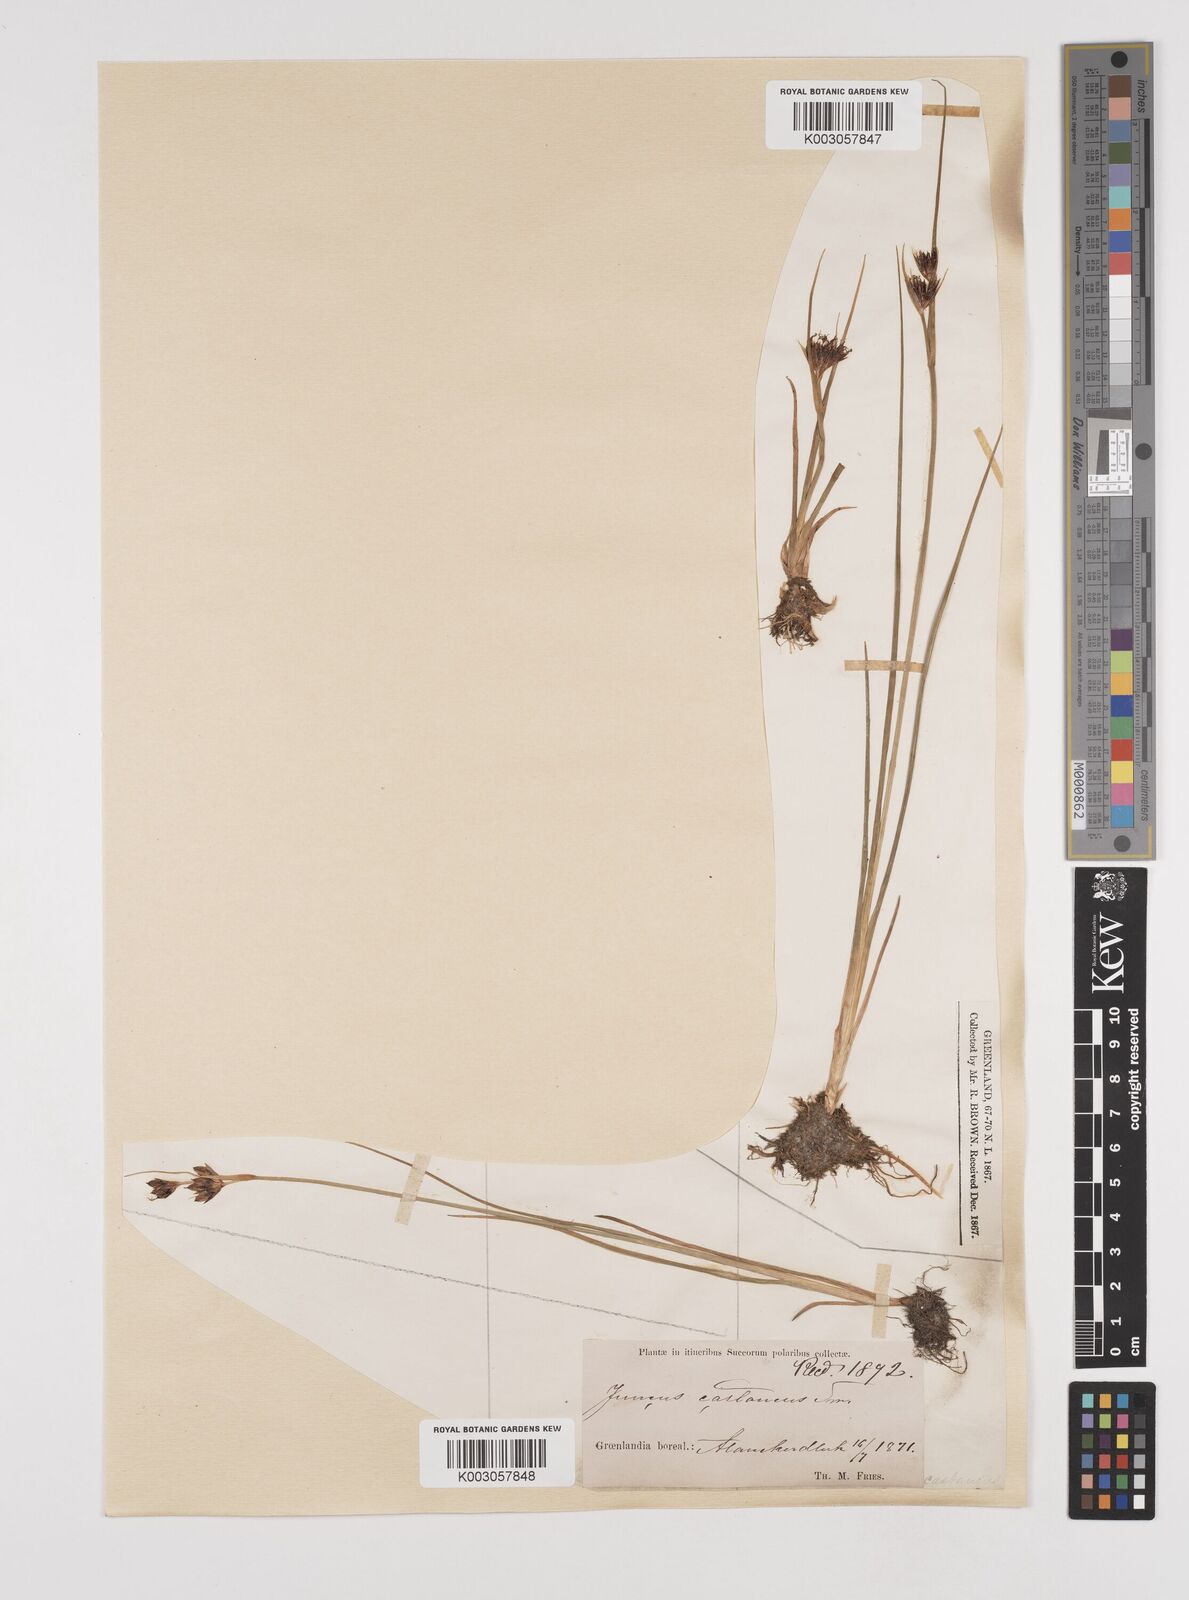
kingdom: Plantae
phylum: Tracheophyta
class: Liliopsida
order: Poales
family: Juncaceae
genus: Juncus
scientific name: Juncus castaneus
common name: Chestnut rush
